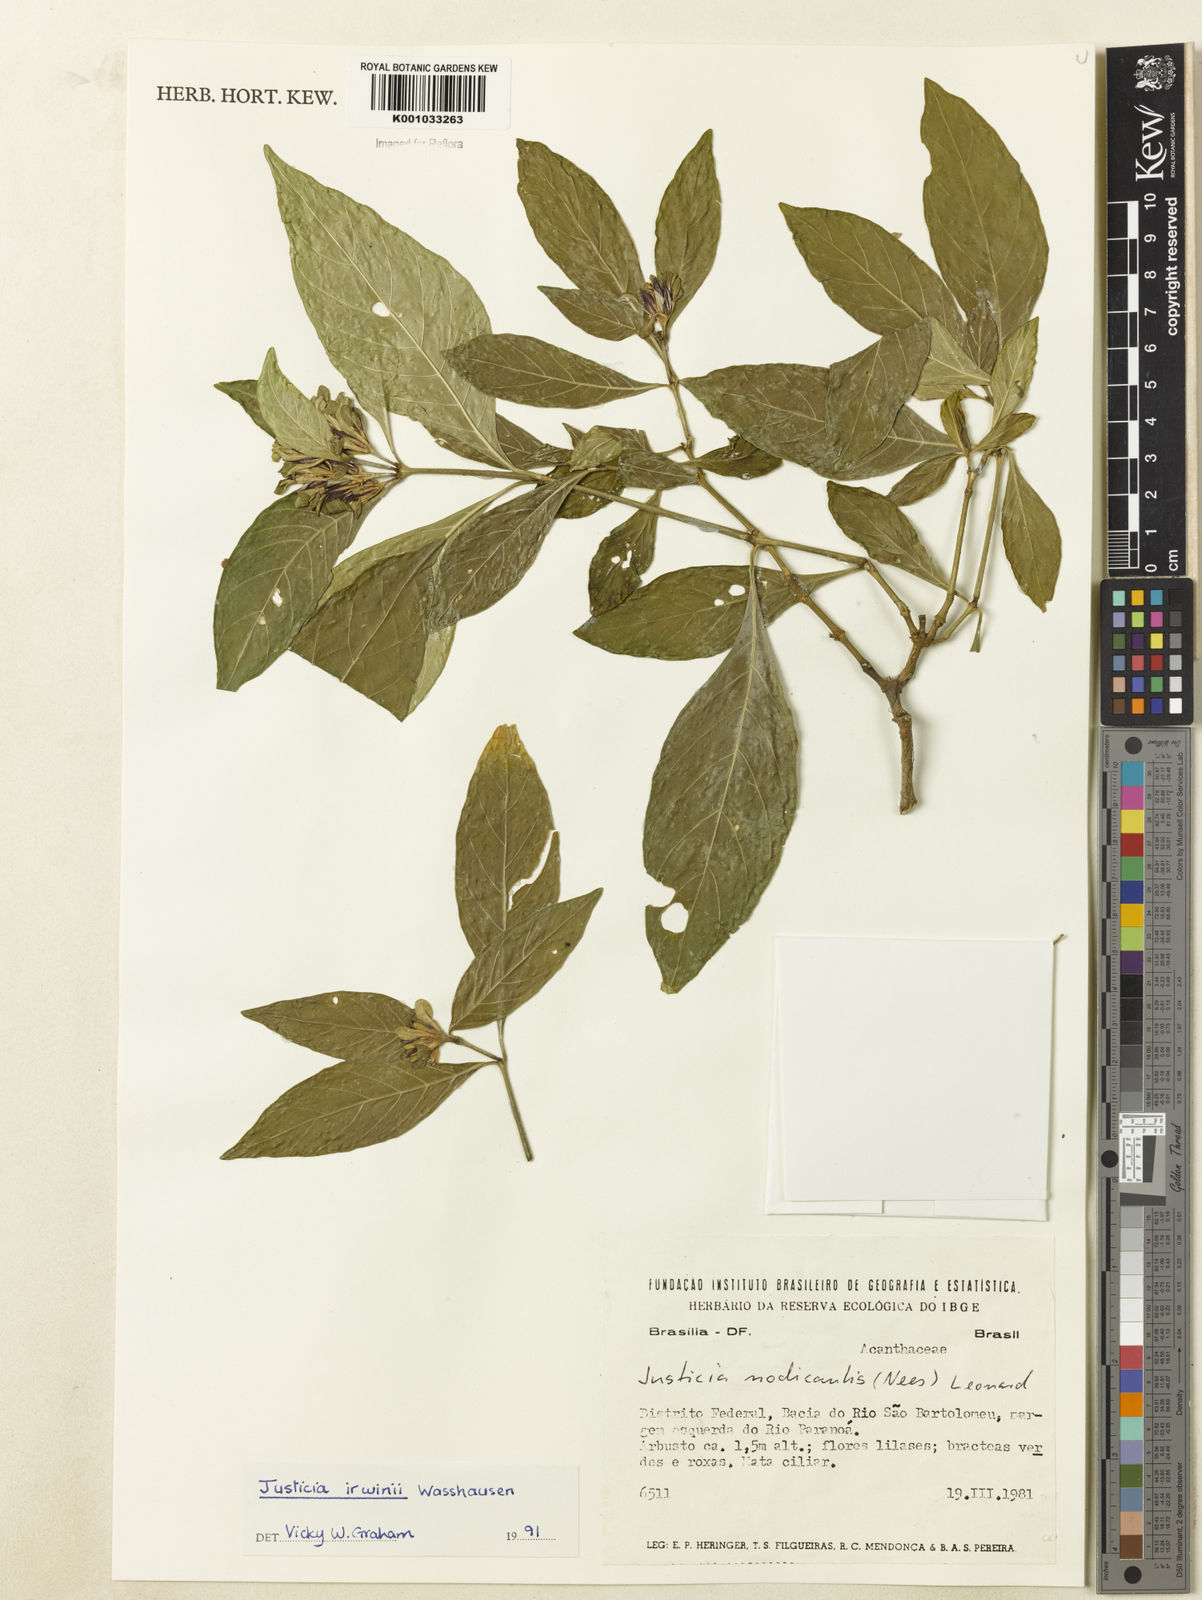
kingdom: Plantae
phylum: Tracheophyta
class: Magnoliopsida
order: Lamiales
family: Acanthaceae
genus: Justicia
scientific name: Justicia irwinii
